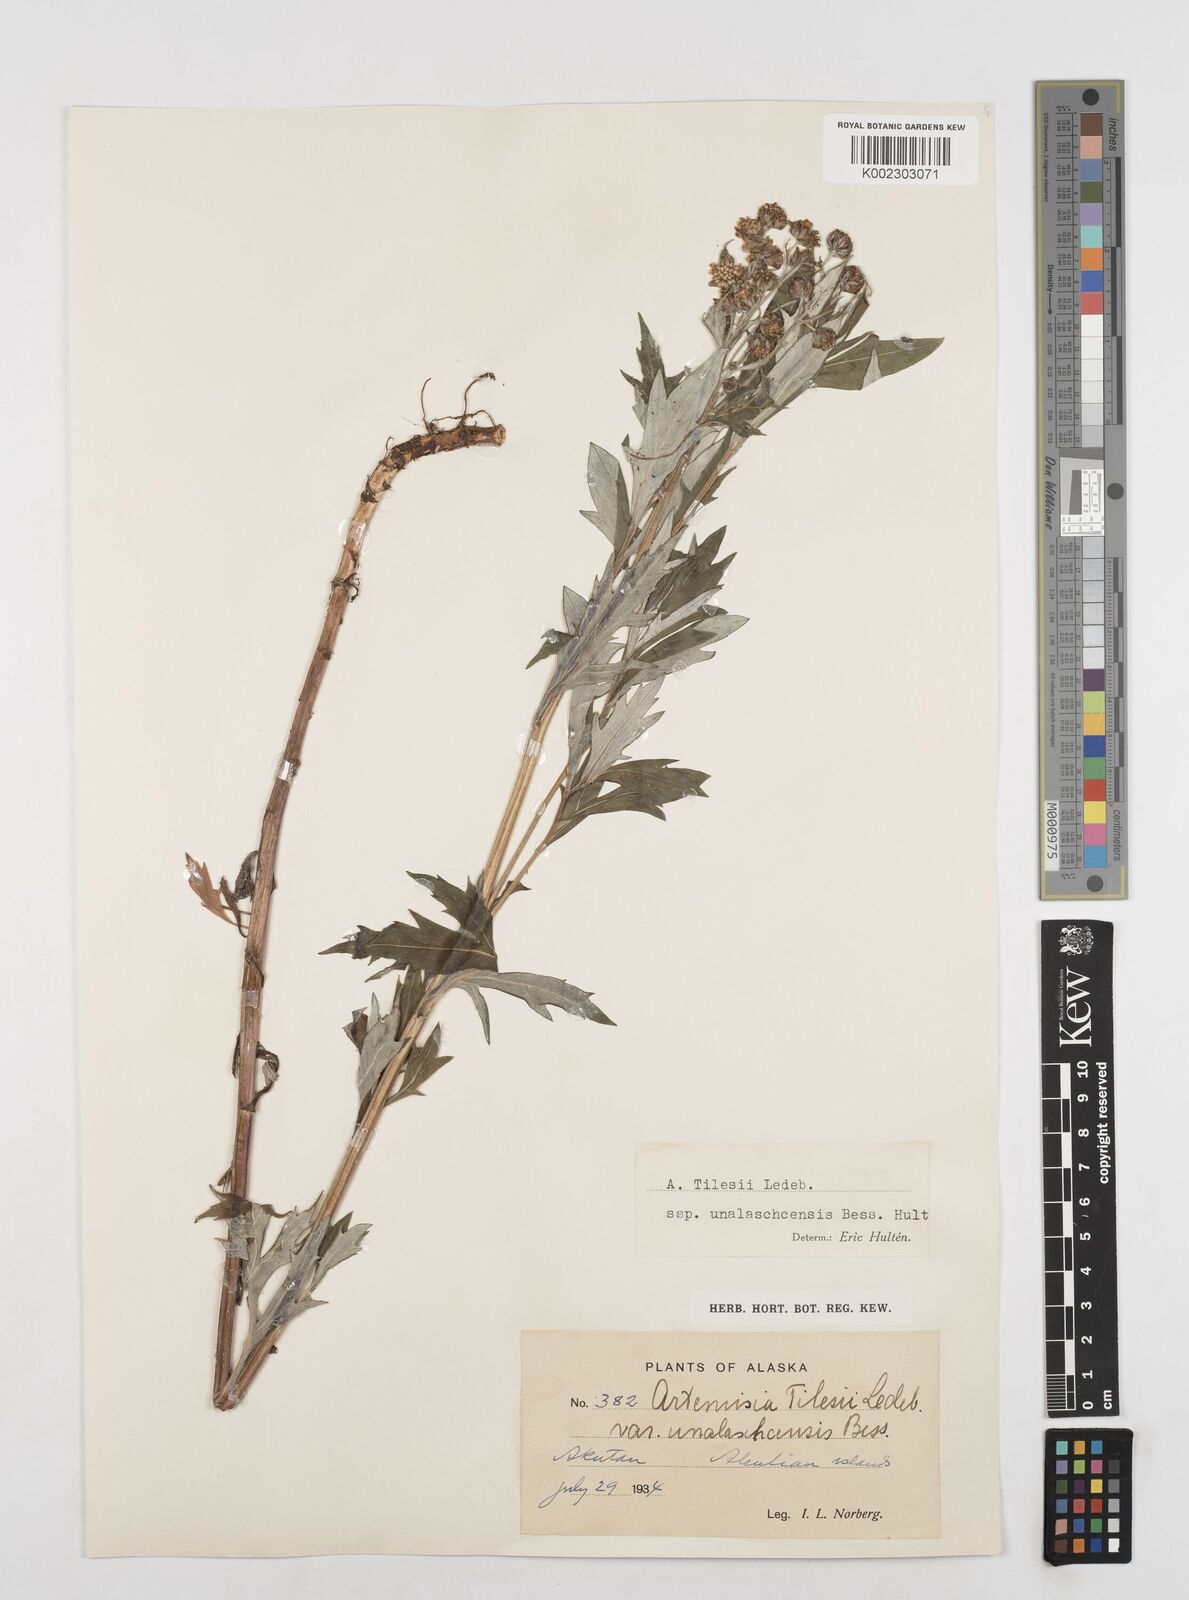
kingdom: Plantae
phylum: Tracheophyta
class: Magnoliopsida
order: Asterales
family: Asteraceae
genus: Artemisia
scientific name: Artemisia tilesii
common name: Aleutian mugwort
